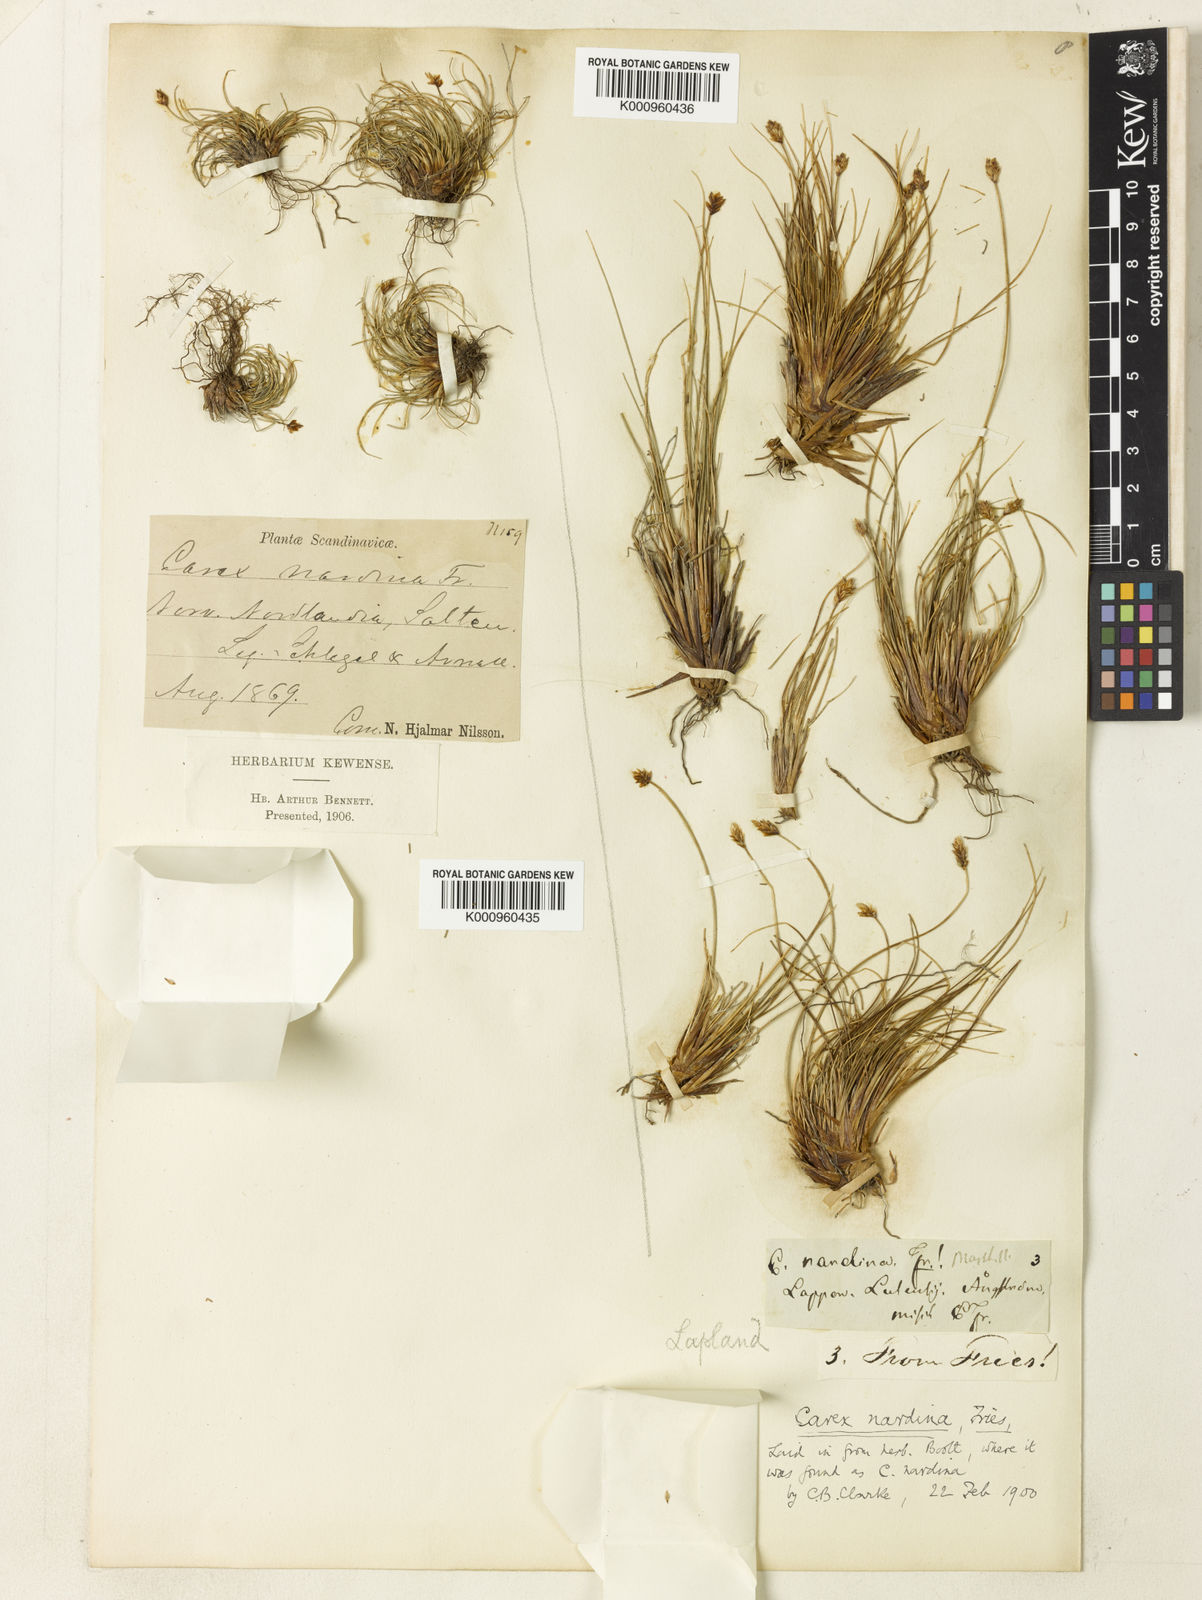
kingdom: Plantae
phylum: Tracheophyta
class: Liliopsida
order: Poales
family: Cyperaceae
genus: Carex
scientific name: Carex nardina
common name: Nard sedge
